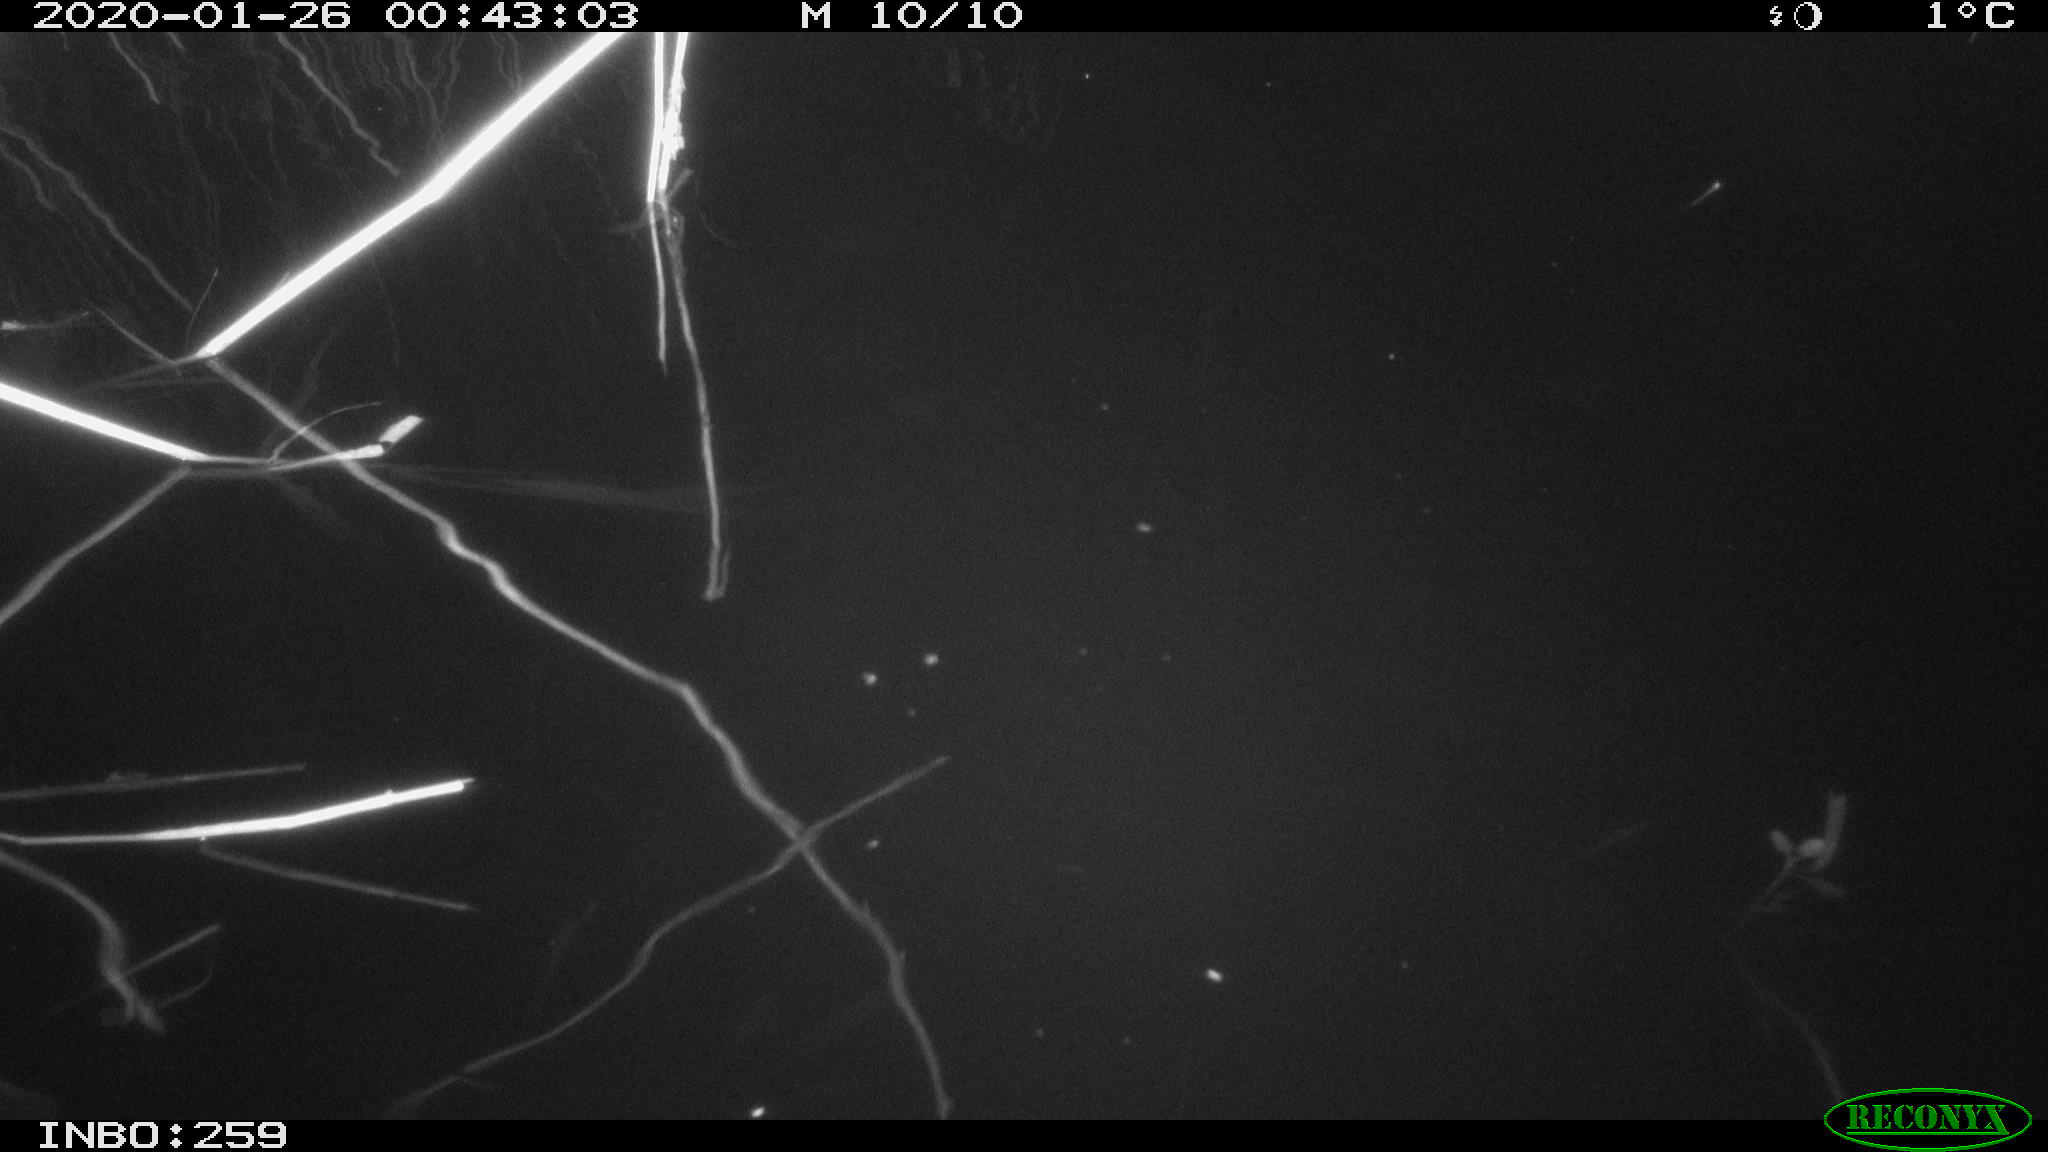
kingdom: Animalia
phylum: Chordata
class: Mammalia
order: Rodentia
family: Cricetidae
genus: Ondatra
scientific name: Ondatra zibethicus
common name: Muskrat
